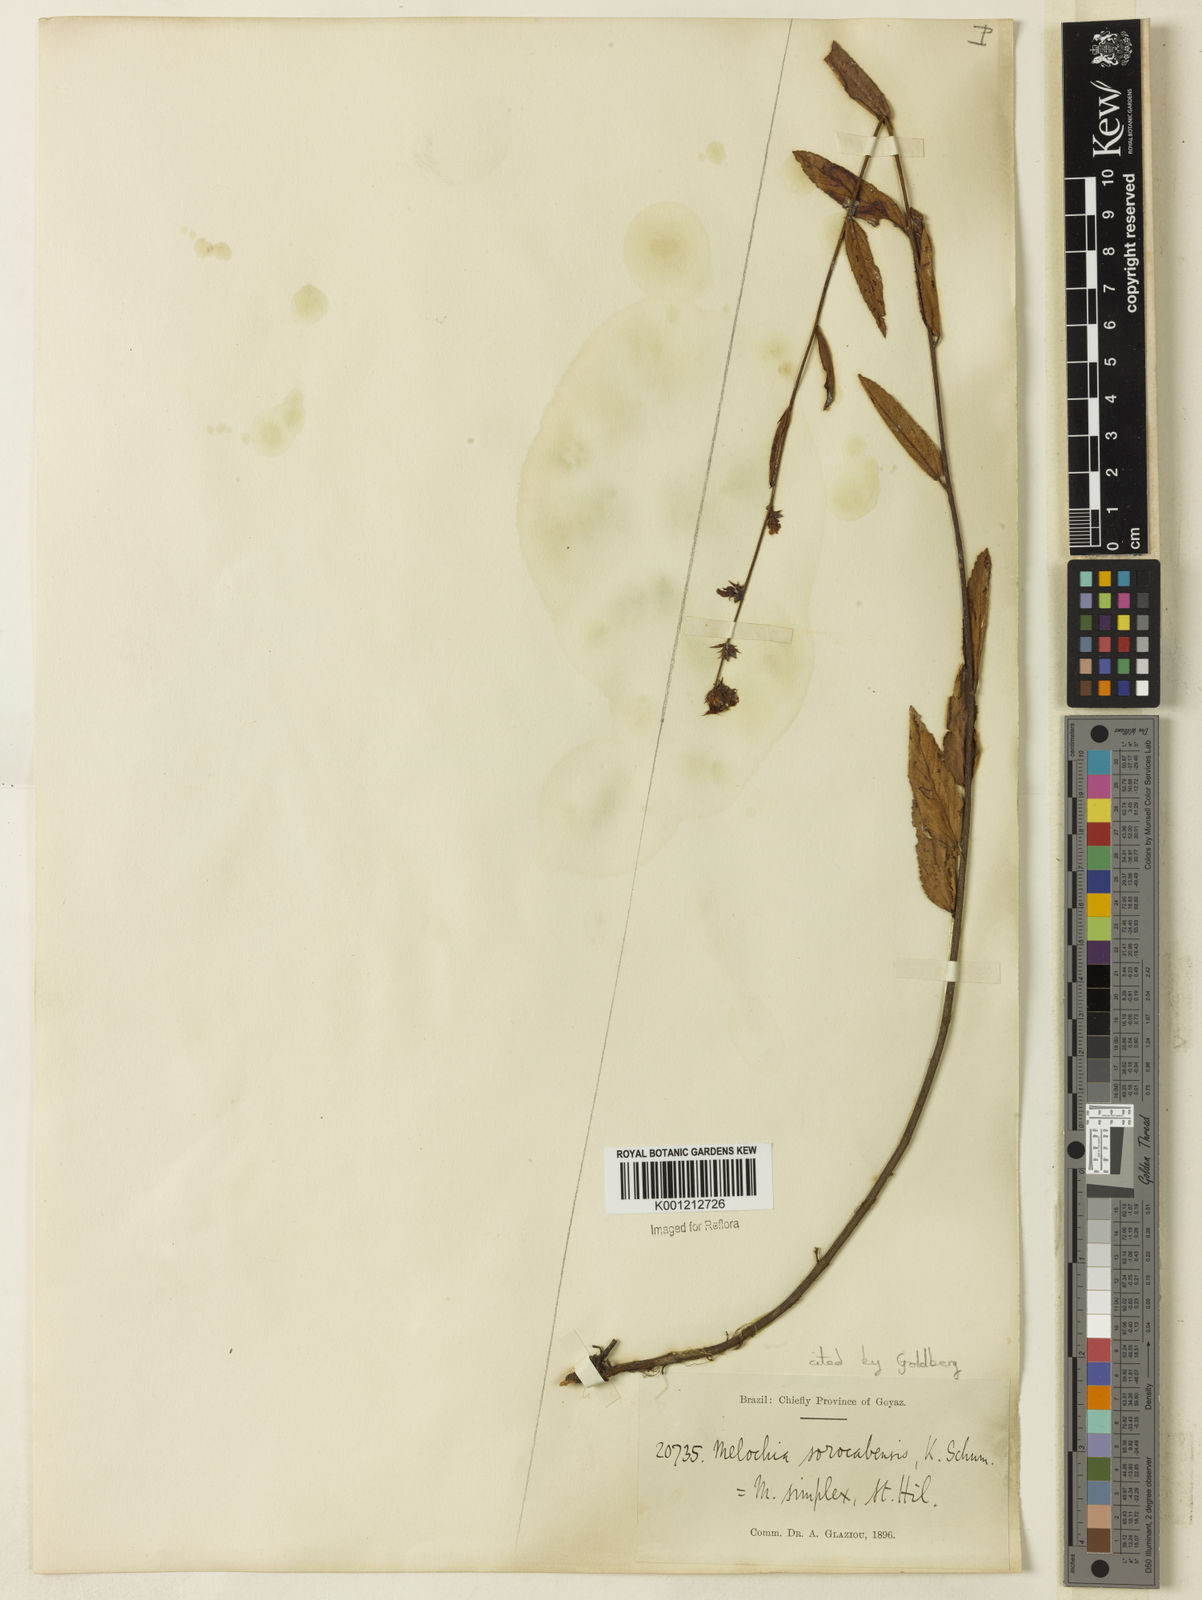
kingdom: Plantae
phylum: Tracheophyta
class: Magnoliopsida
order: Malvales
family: Malvaceae
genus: Melochia
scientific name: Melochia simplex
